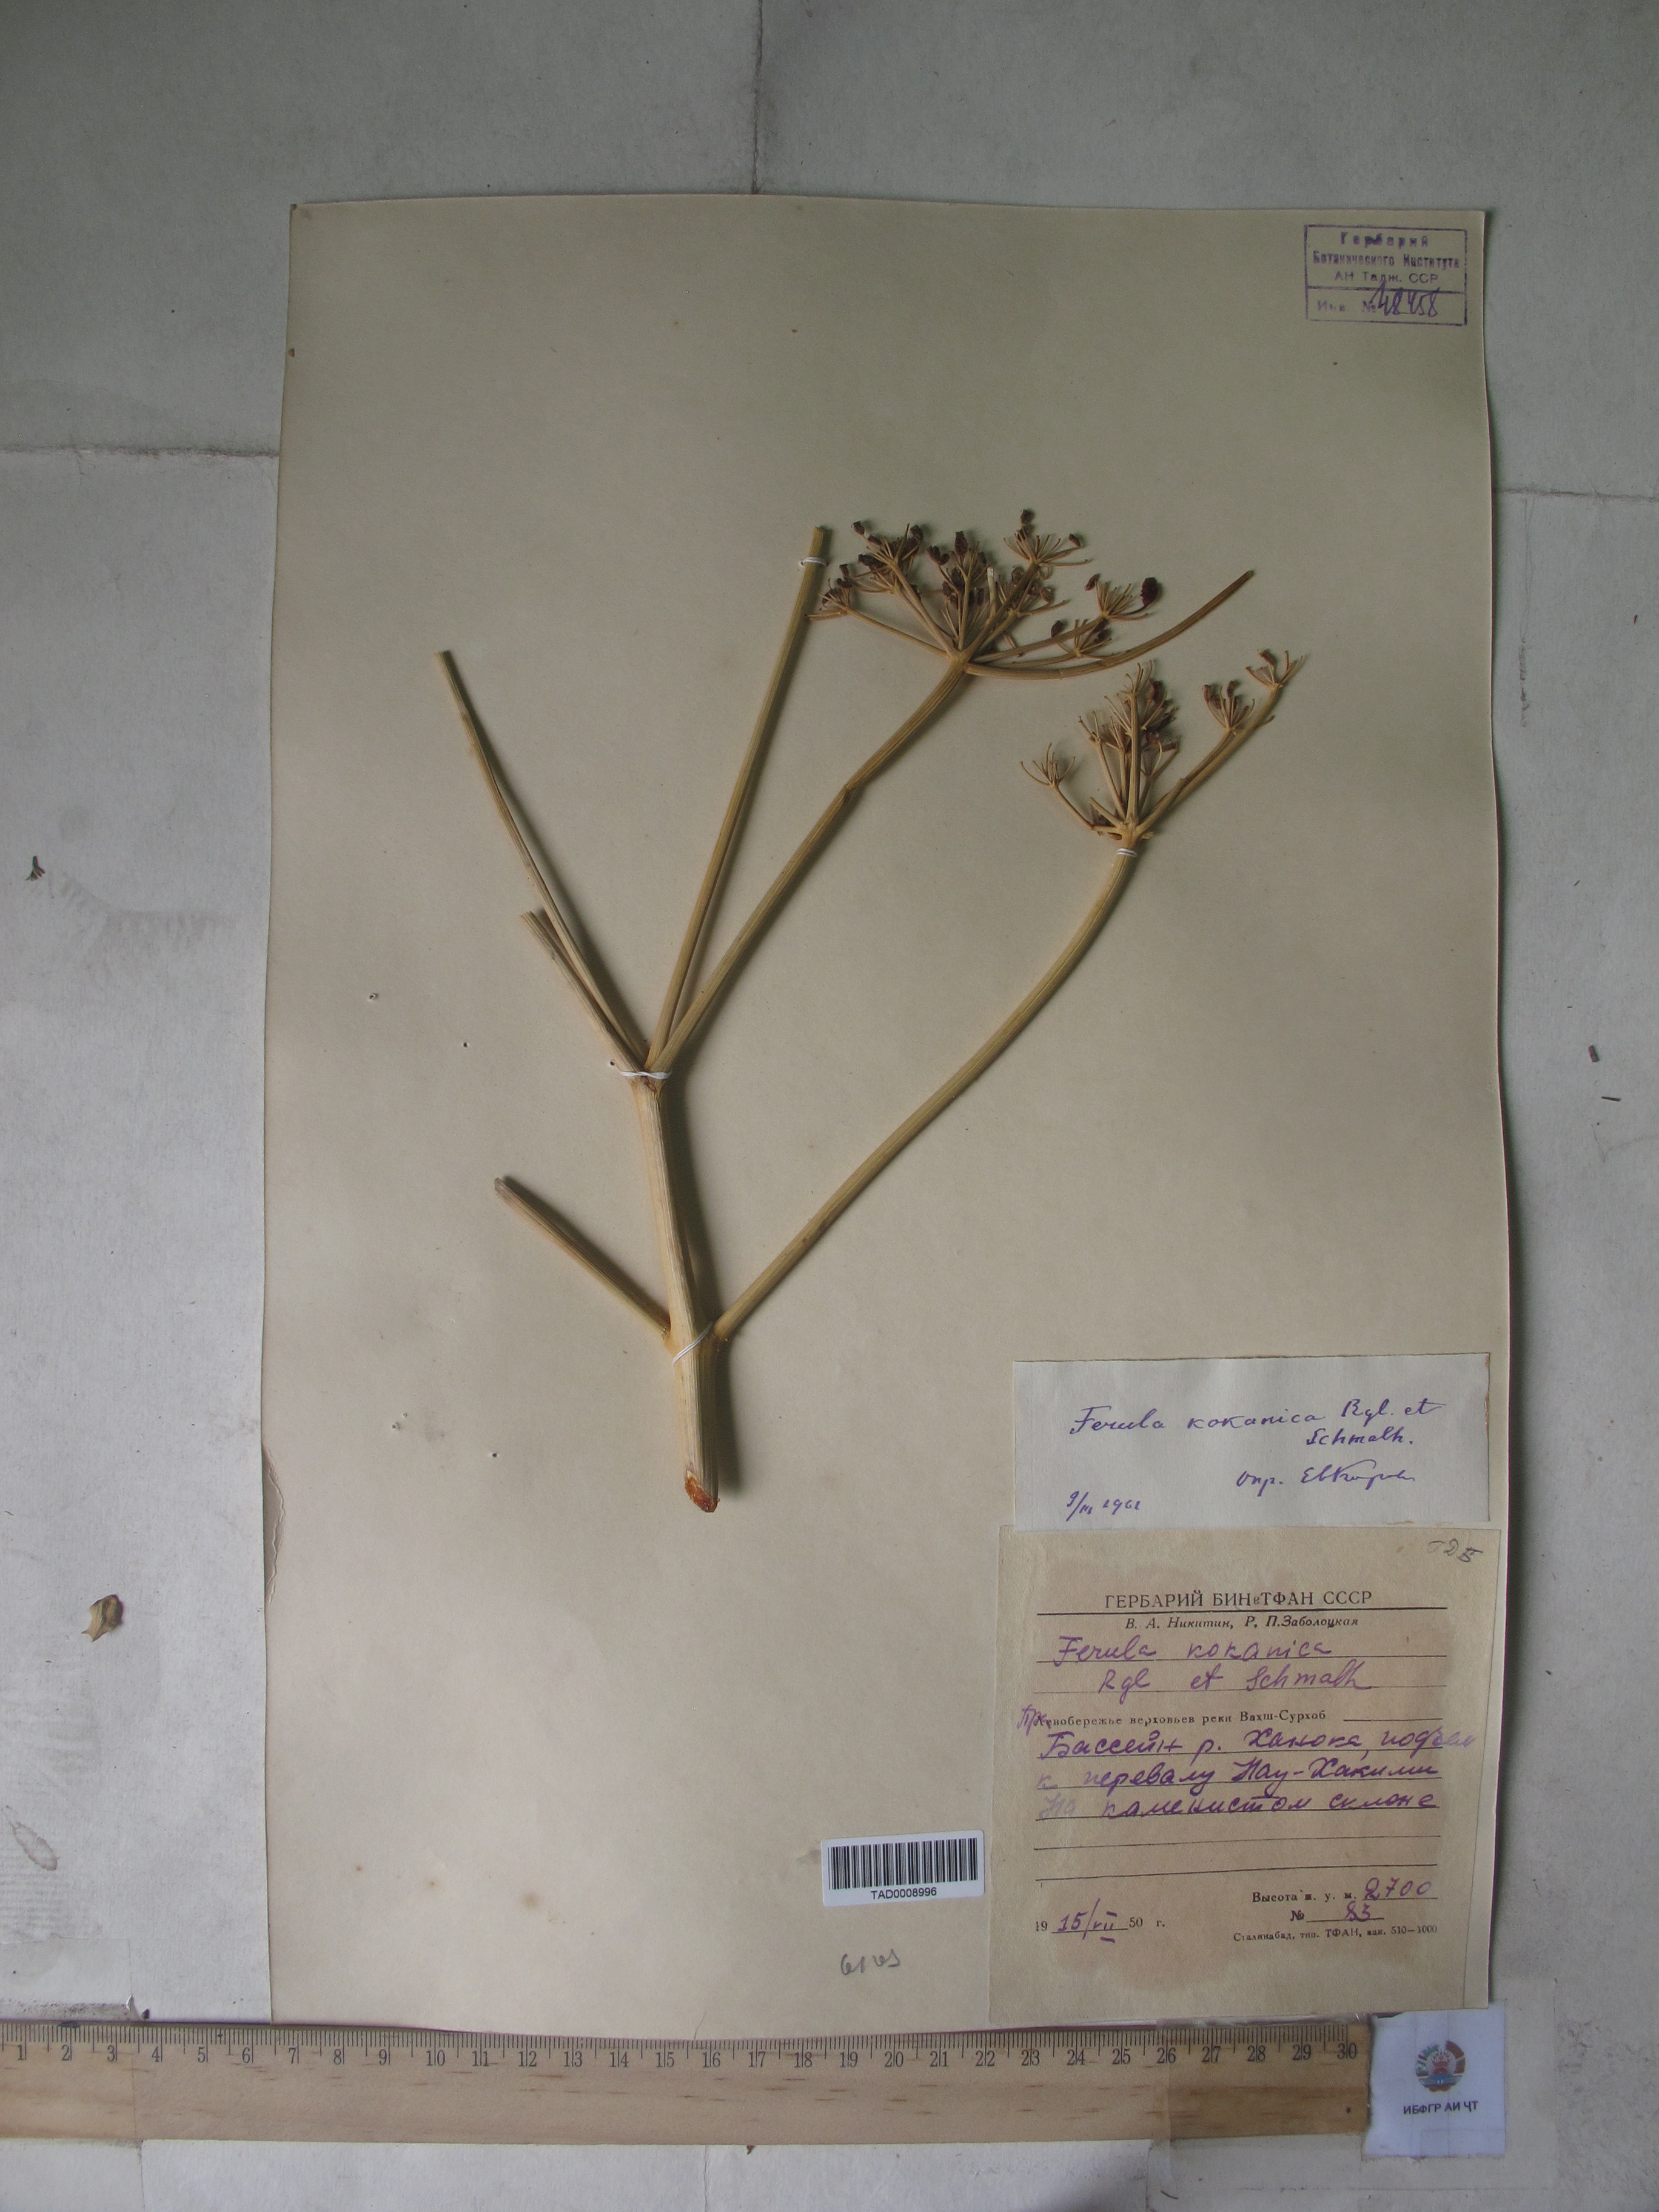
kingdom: Plantae
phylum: Tracheophyta
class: Magnoliopsida
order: Apiales
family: Apiaceae
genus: Ferula
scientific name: Ferula kokanica
